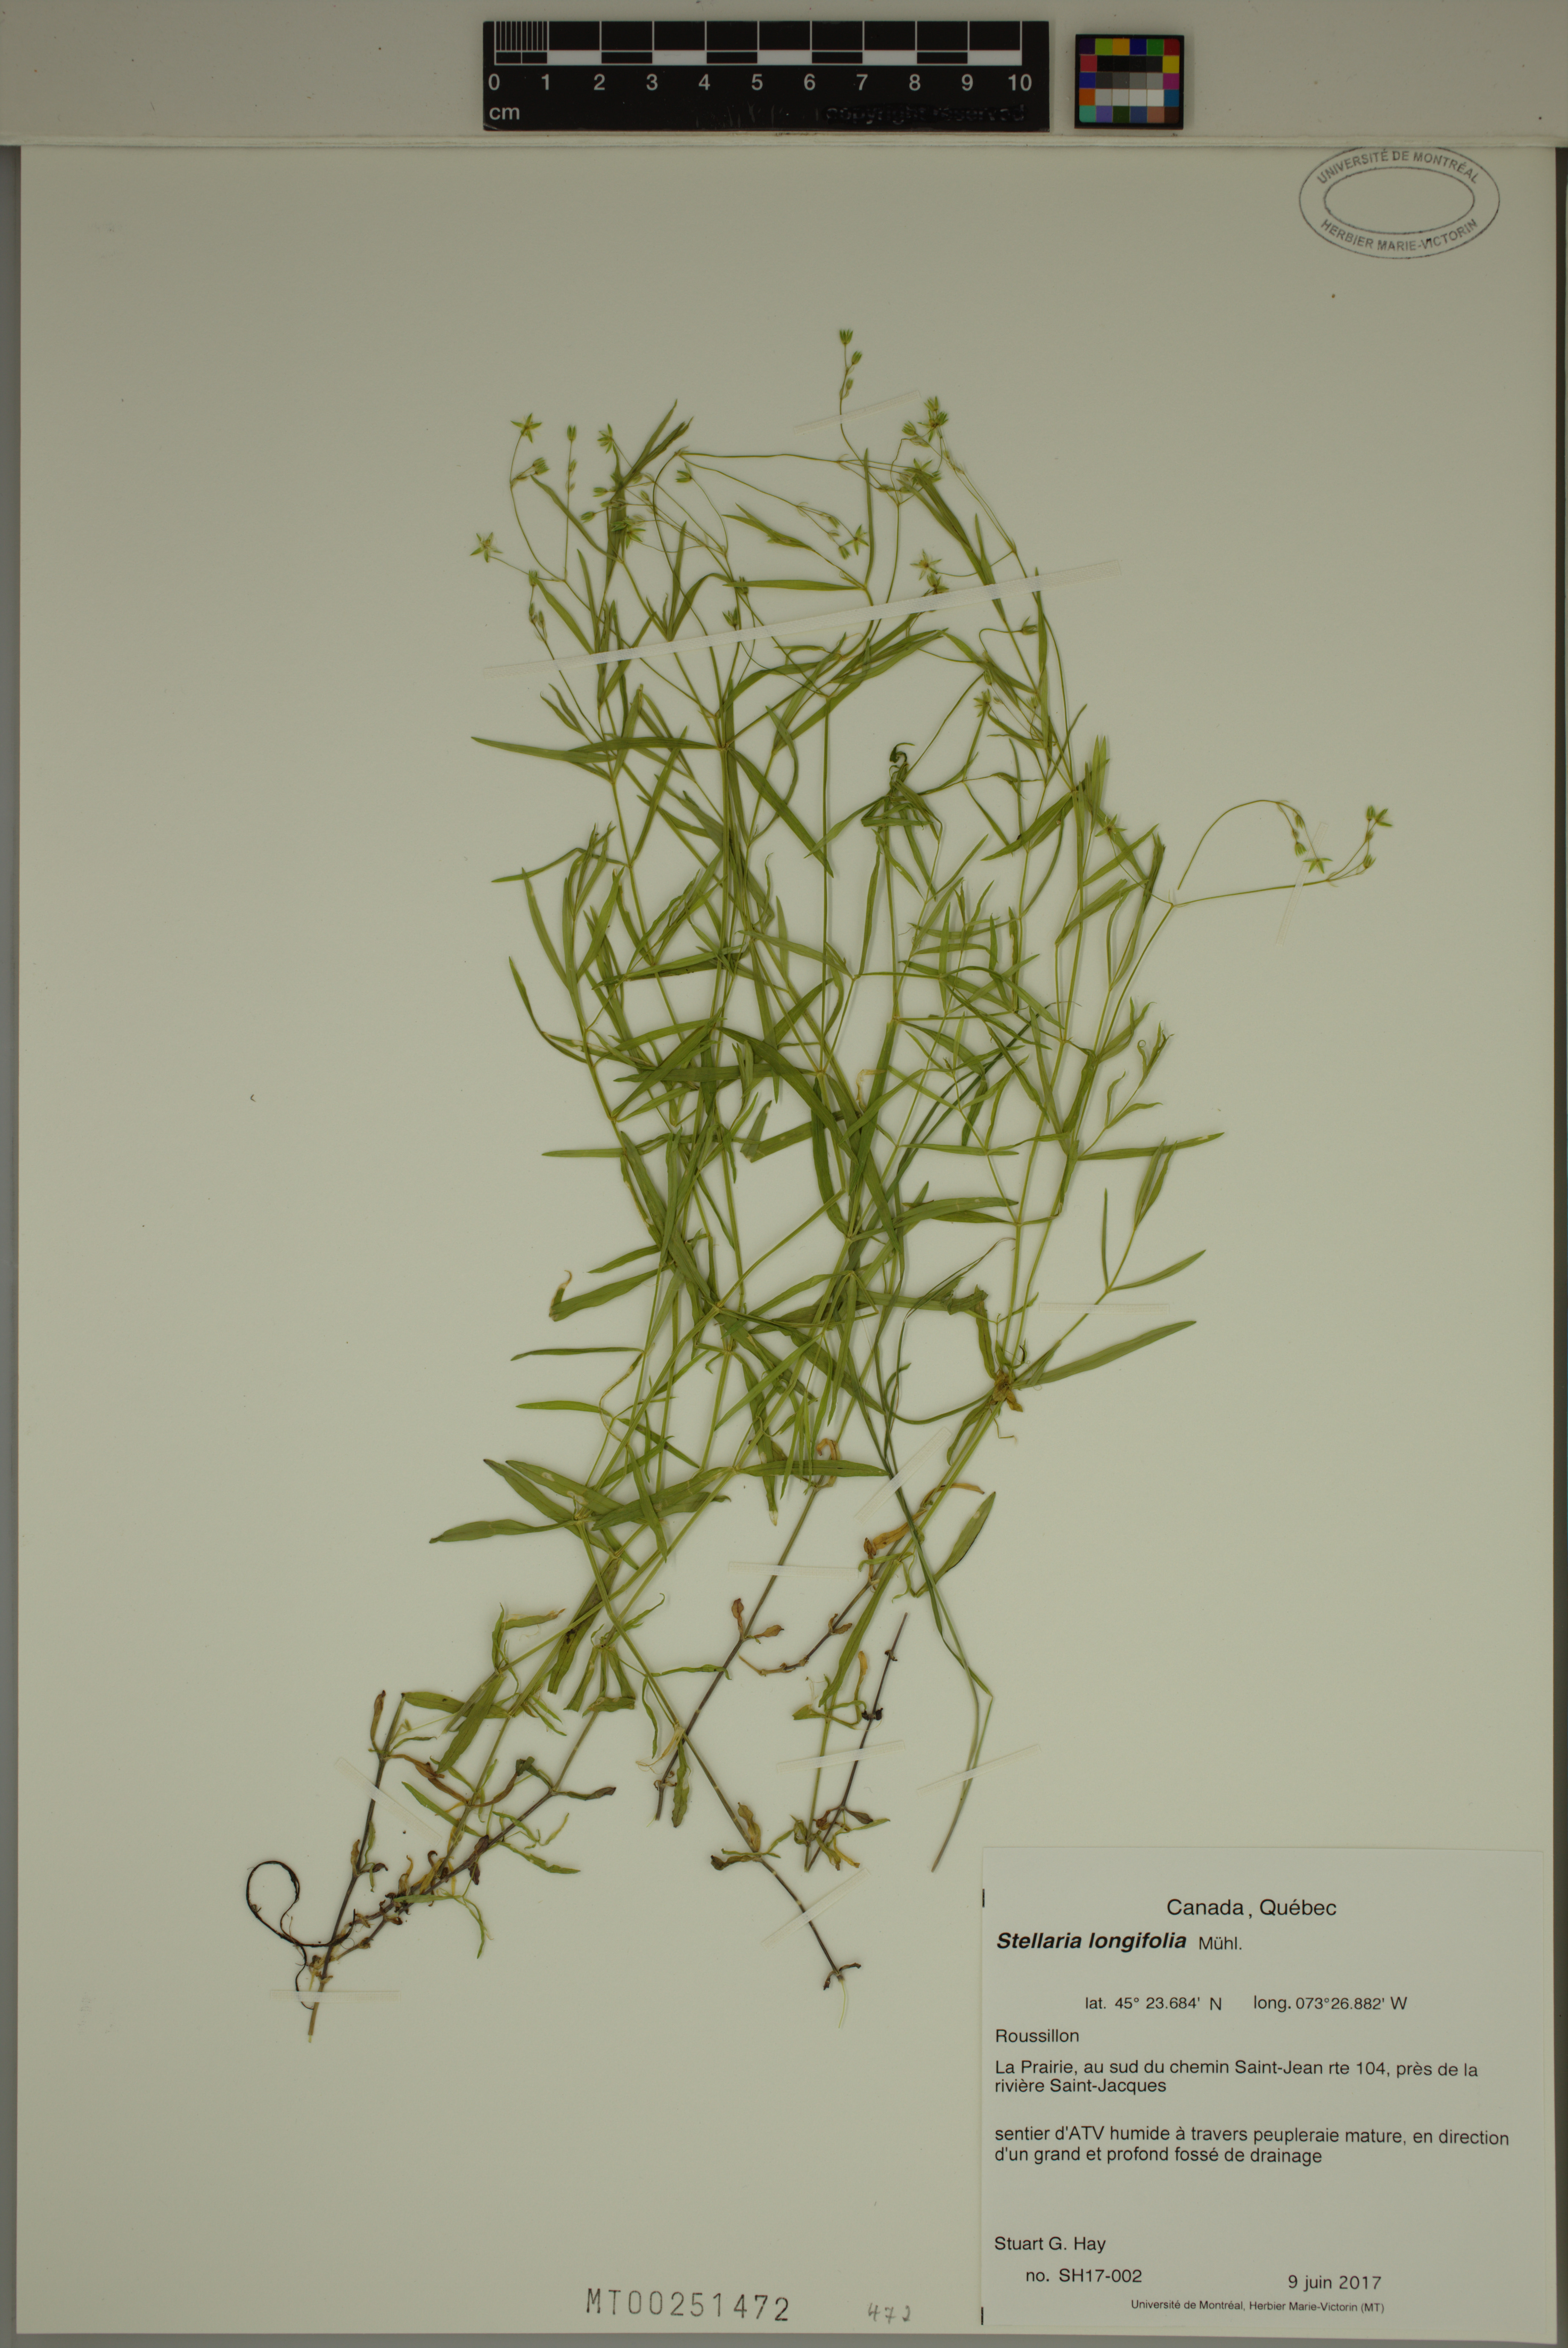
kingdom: Plantae
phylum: Tracheophyta
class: Magnoliopsida
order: Caryophyllales
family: Caryophyllaceae
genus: Stellaria
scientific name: Stellaria longifolia
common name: Long-leaved chickweed
